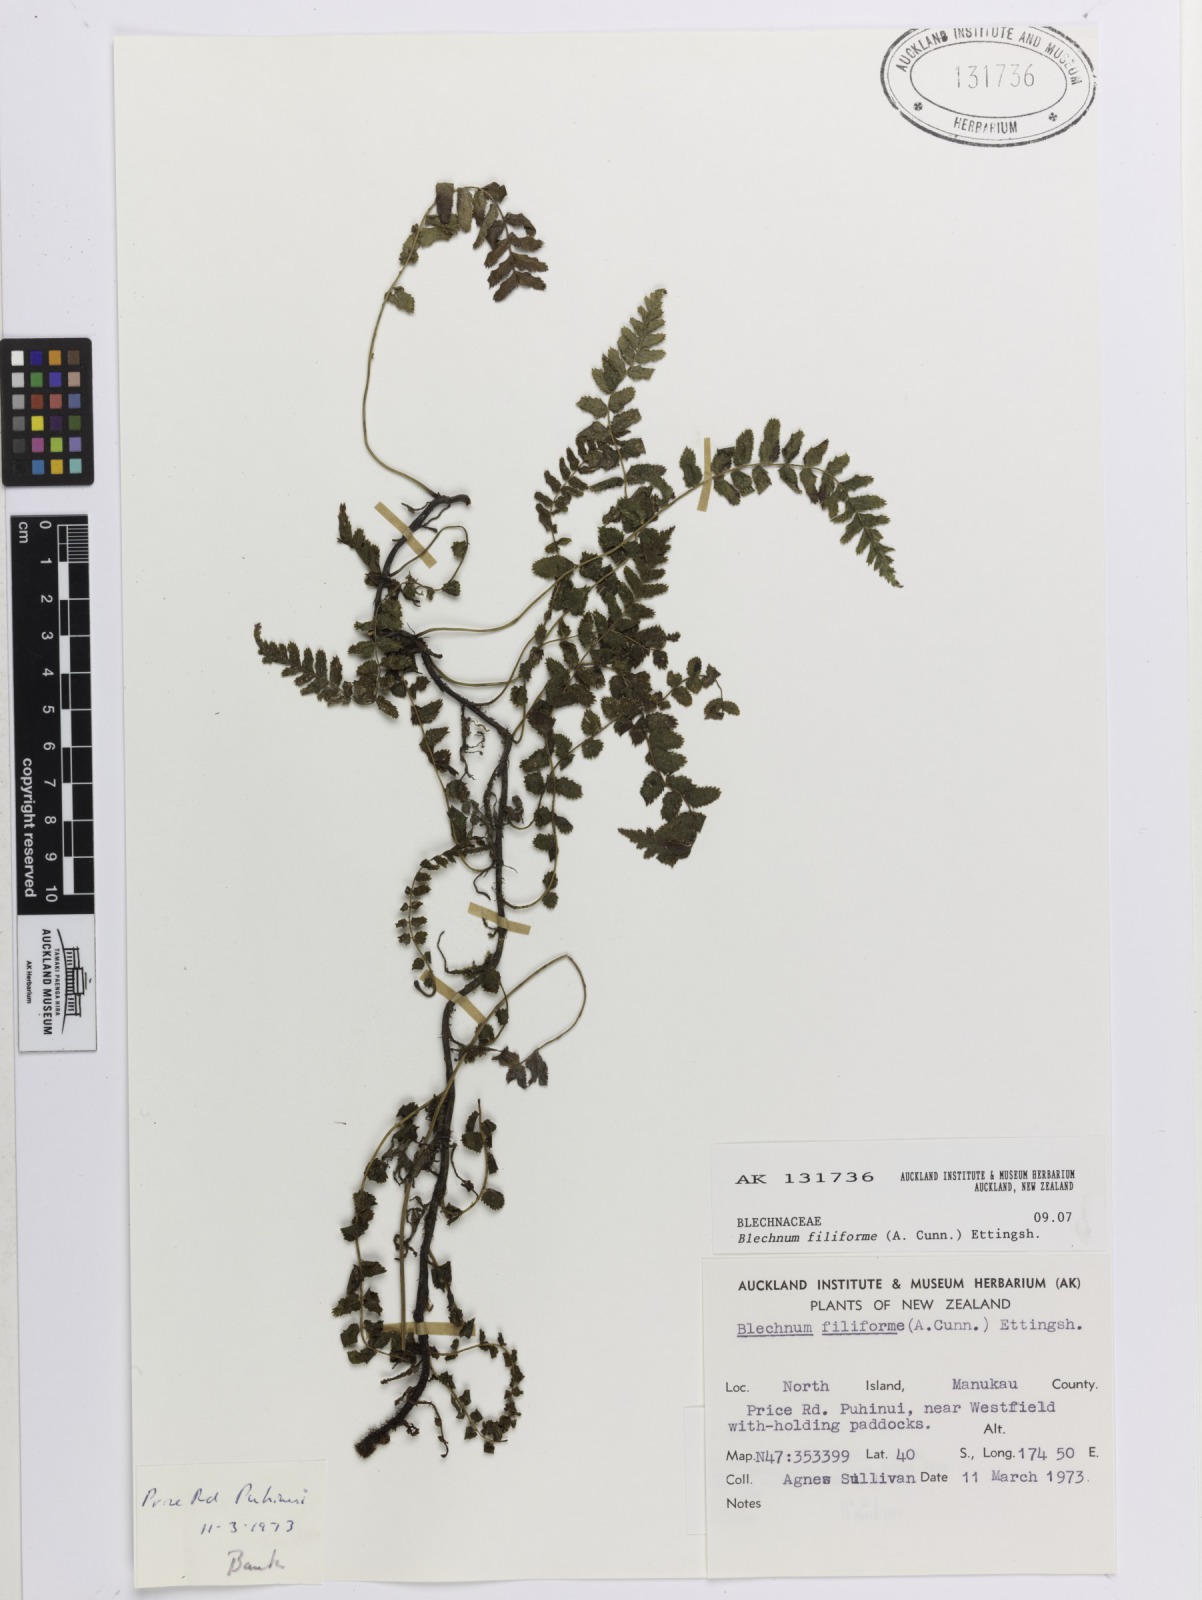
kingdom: Plantae
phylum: Tracheophyta
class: Polypodiopsida
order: Polypodiales
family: Blechnaceae
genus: Icarus
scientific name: Icarus filiformis
